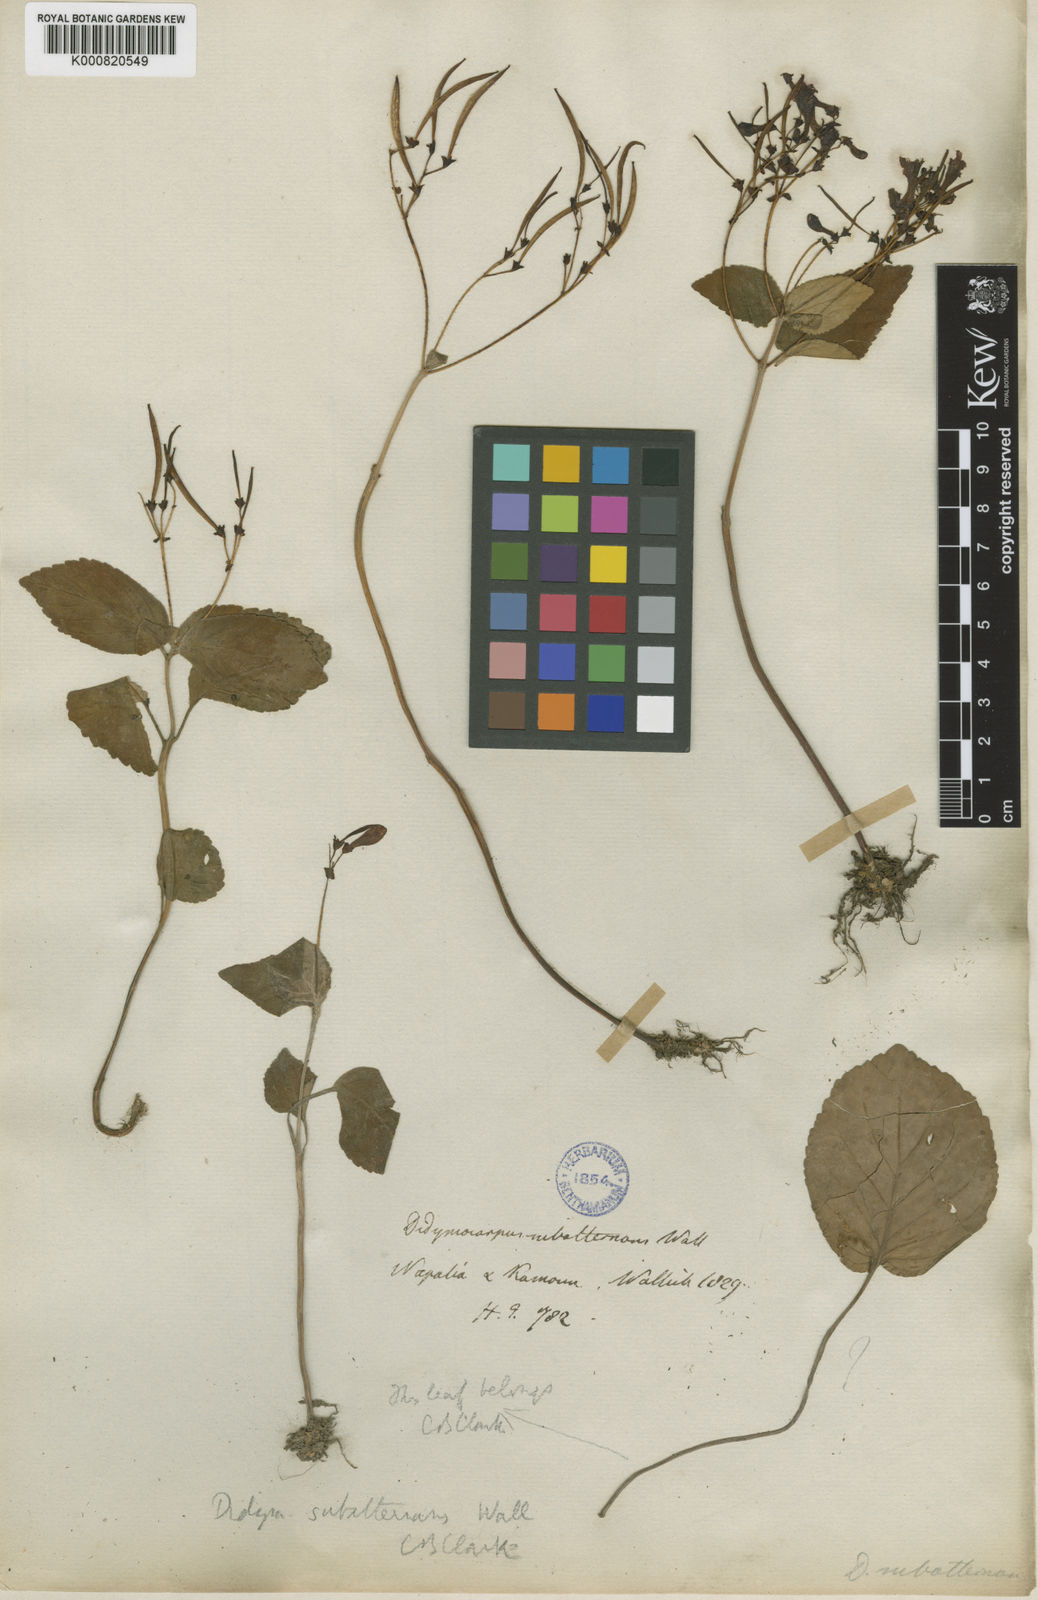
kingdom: Plantae
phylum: Tracheophyta
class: Magnoliopsida
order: Lamiales
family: Gesneriaceae
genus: Didymocarpus
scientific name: Didymocarpus aromaticus
